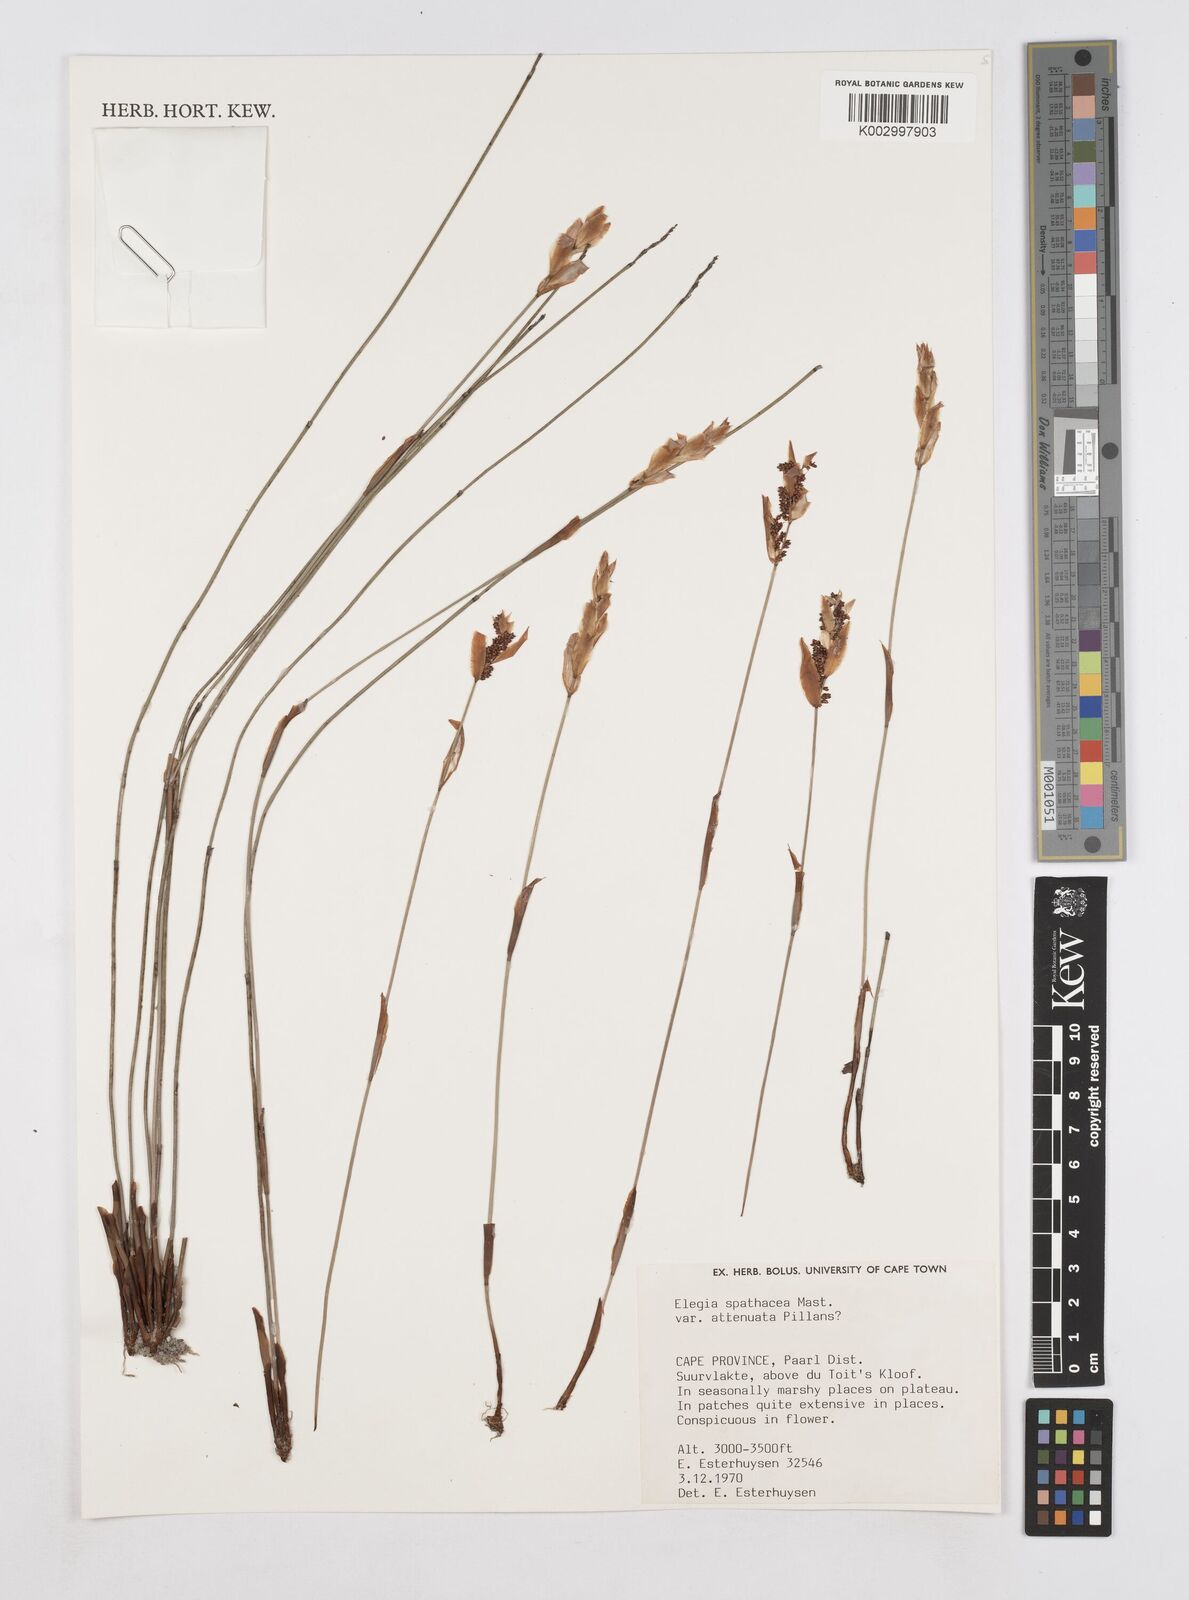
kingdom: Plantae
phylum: Tracheophyta
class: Liliopsida
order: Poales
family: Restionaceae
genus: Elegia
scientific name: Elegia rigida
